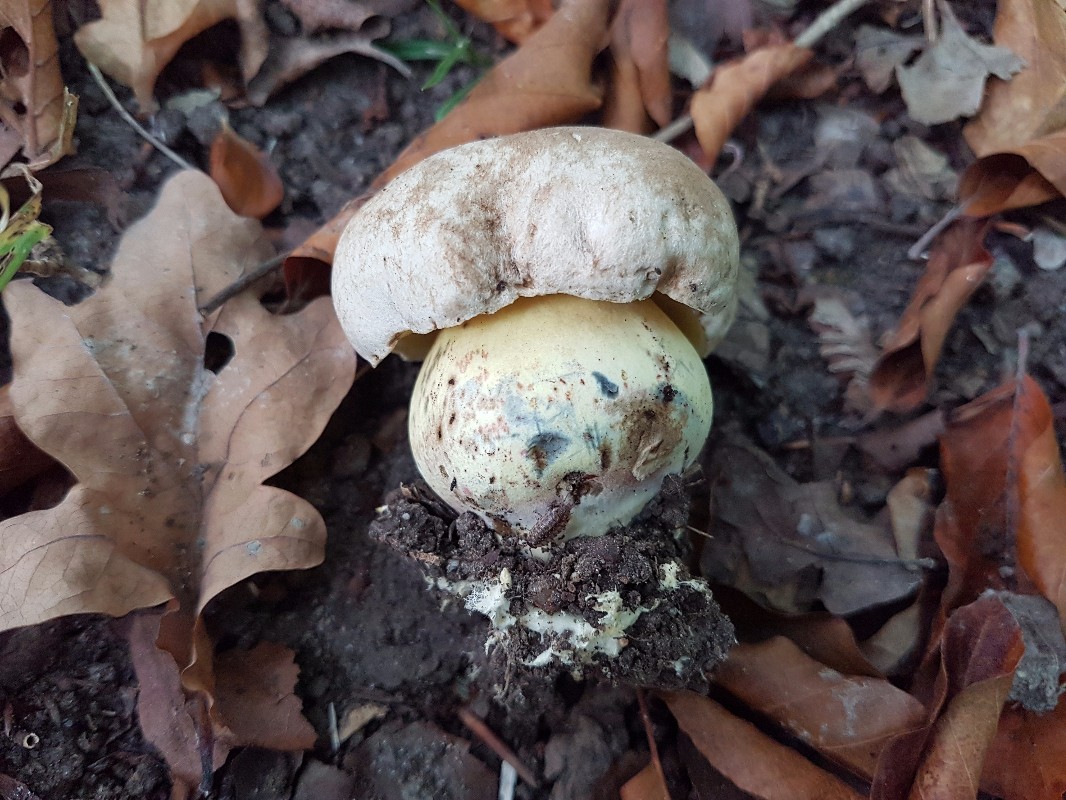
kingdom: Fungi
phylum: Basidiomycota
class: Agaricomycetes
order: Boletales
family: Boletaceae
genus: Caloboletus
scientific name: Caloboletus radicans
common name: rod-rørhat
